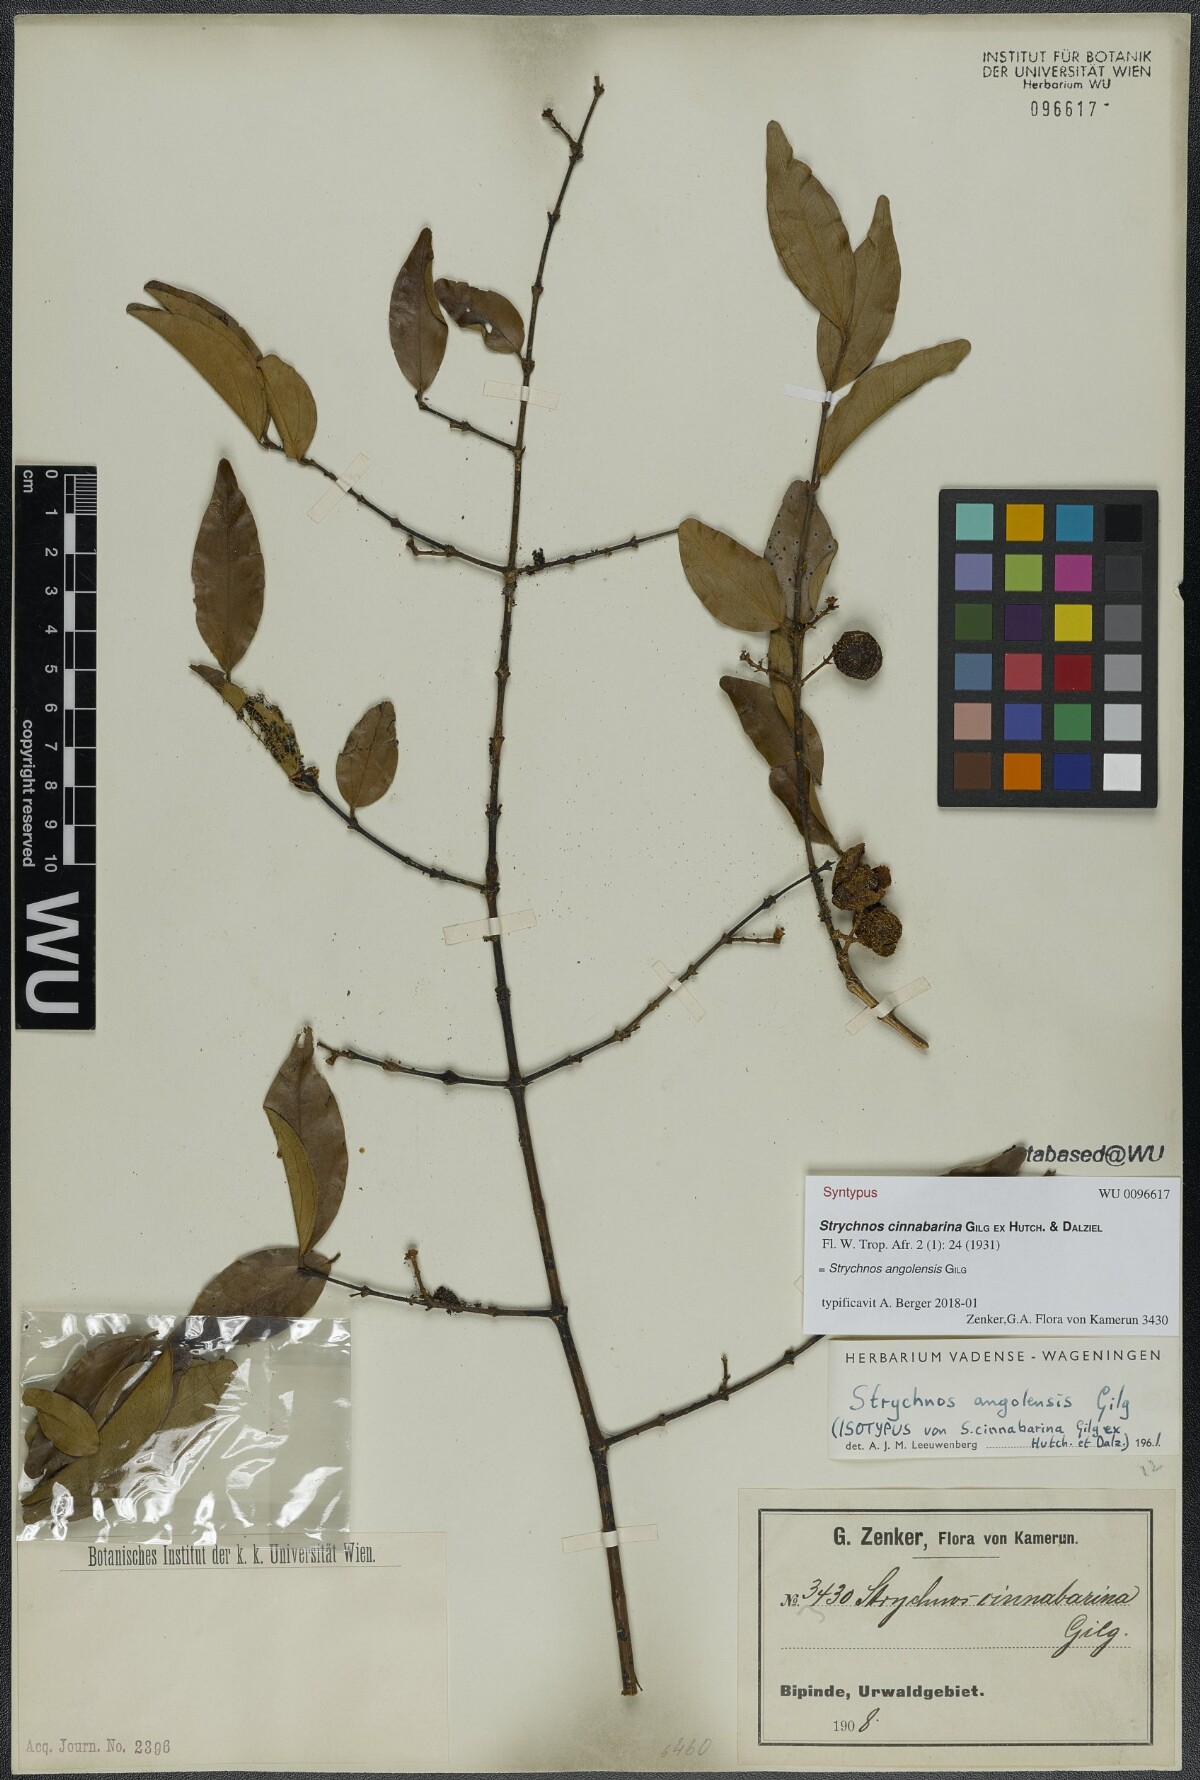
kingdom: Plantae
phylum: Tracheophyta
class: Magnoliopsida
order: Gentianales
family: Loganiaceae
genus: Strychnos
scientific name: Strychnos angolensis
